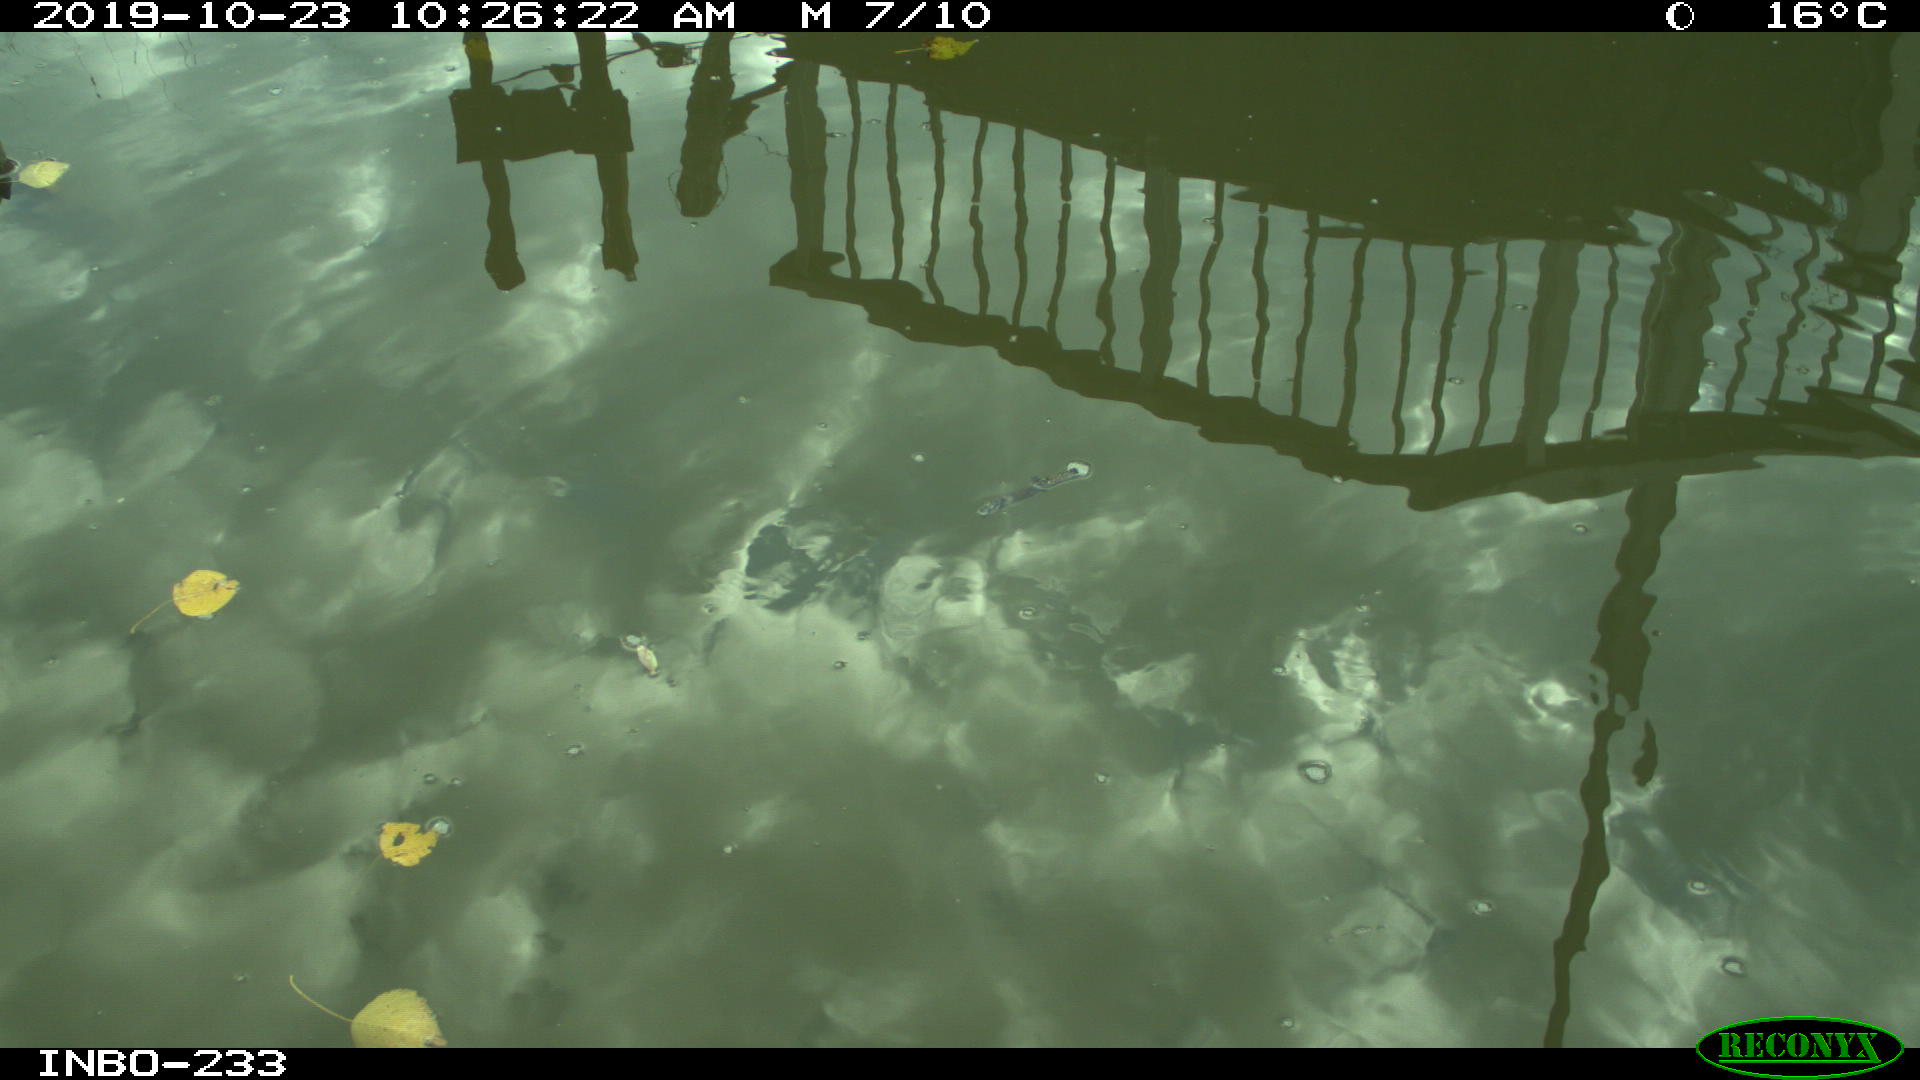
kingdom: Animalia
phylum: Chordata
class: Aves
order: Anseriformes
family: Anatidae
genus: Anas
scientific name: Anas platyrhynchos
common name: Mallard
